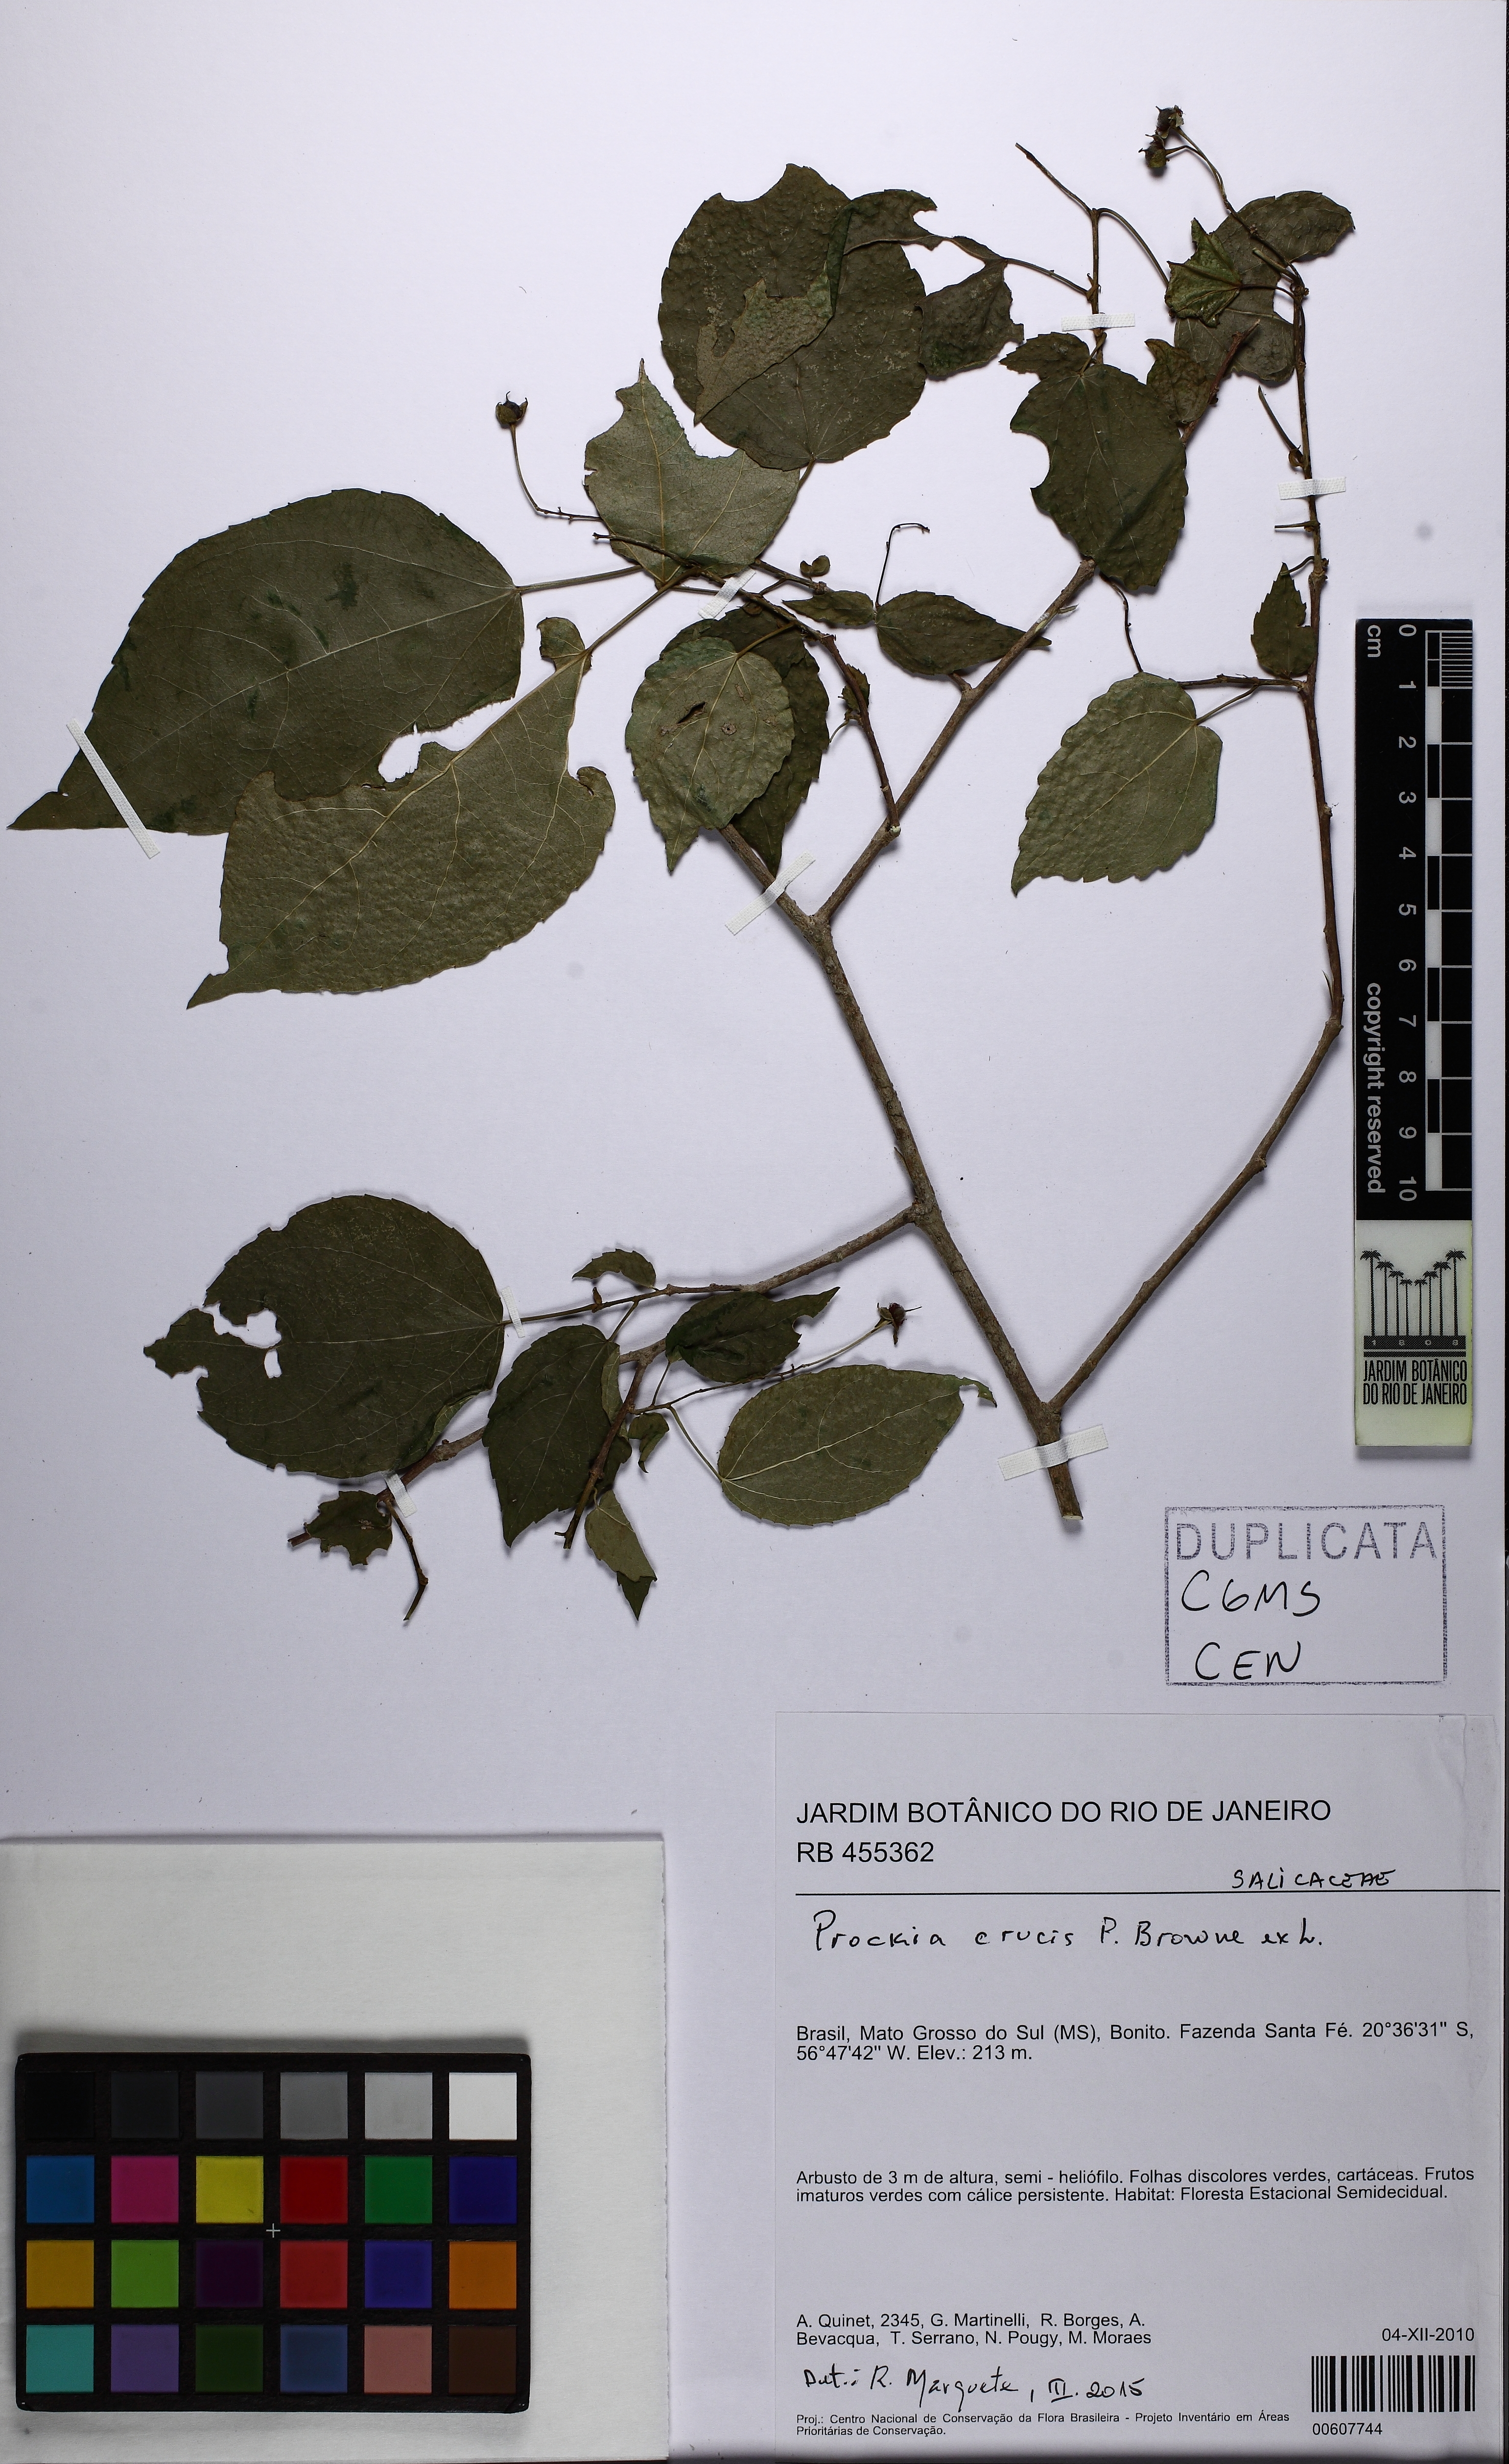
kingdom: Plantae
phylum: Tracheophyta
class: Magnoliopsida
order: Malpighiales
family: Salicaceae
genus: Prockia
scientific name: Prockia crucis
